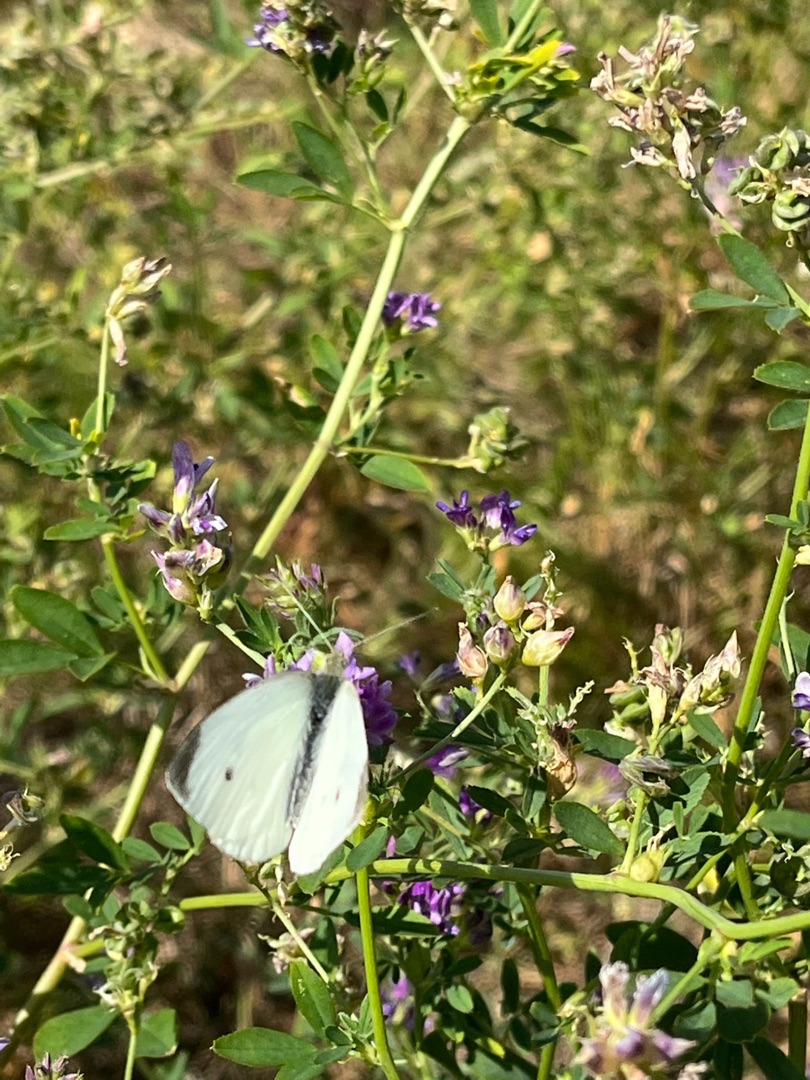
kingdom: Animalia
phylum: Arthropoda
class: Insecta
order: Lepidoptera
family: Pieridae
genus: Pieris
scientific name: Pieris rapae
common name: Lille kålsommerfugl
